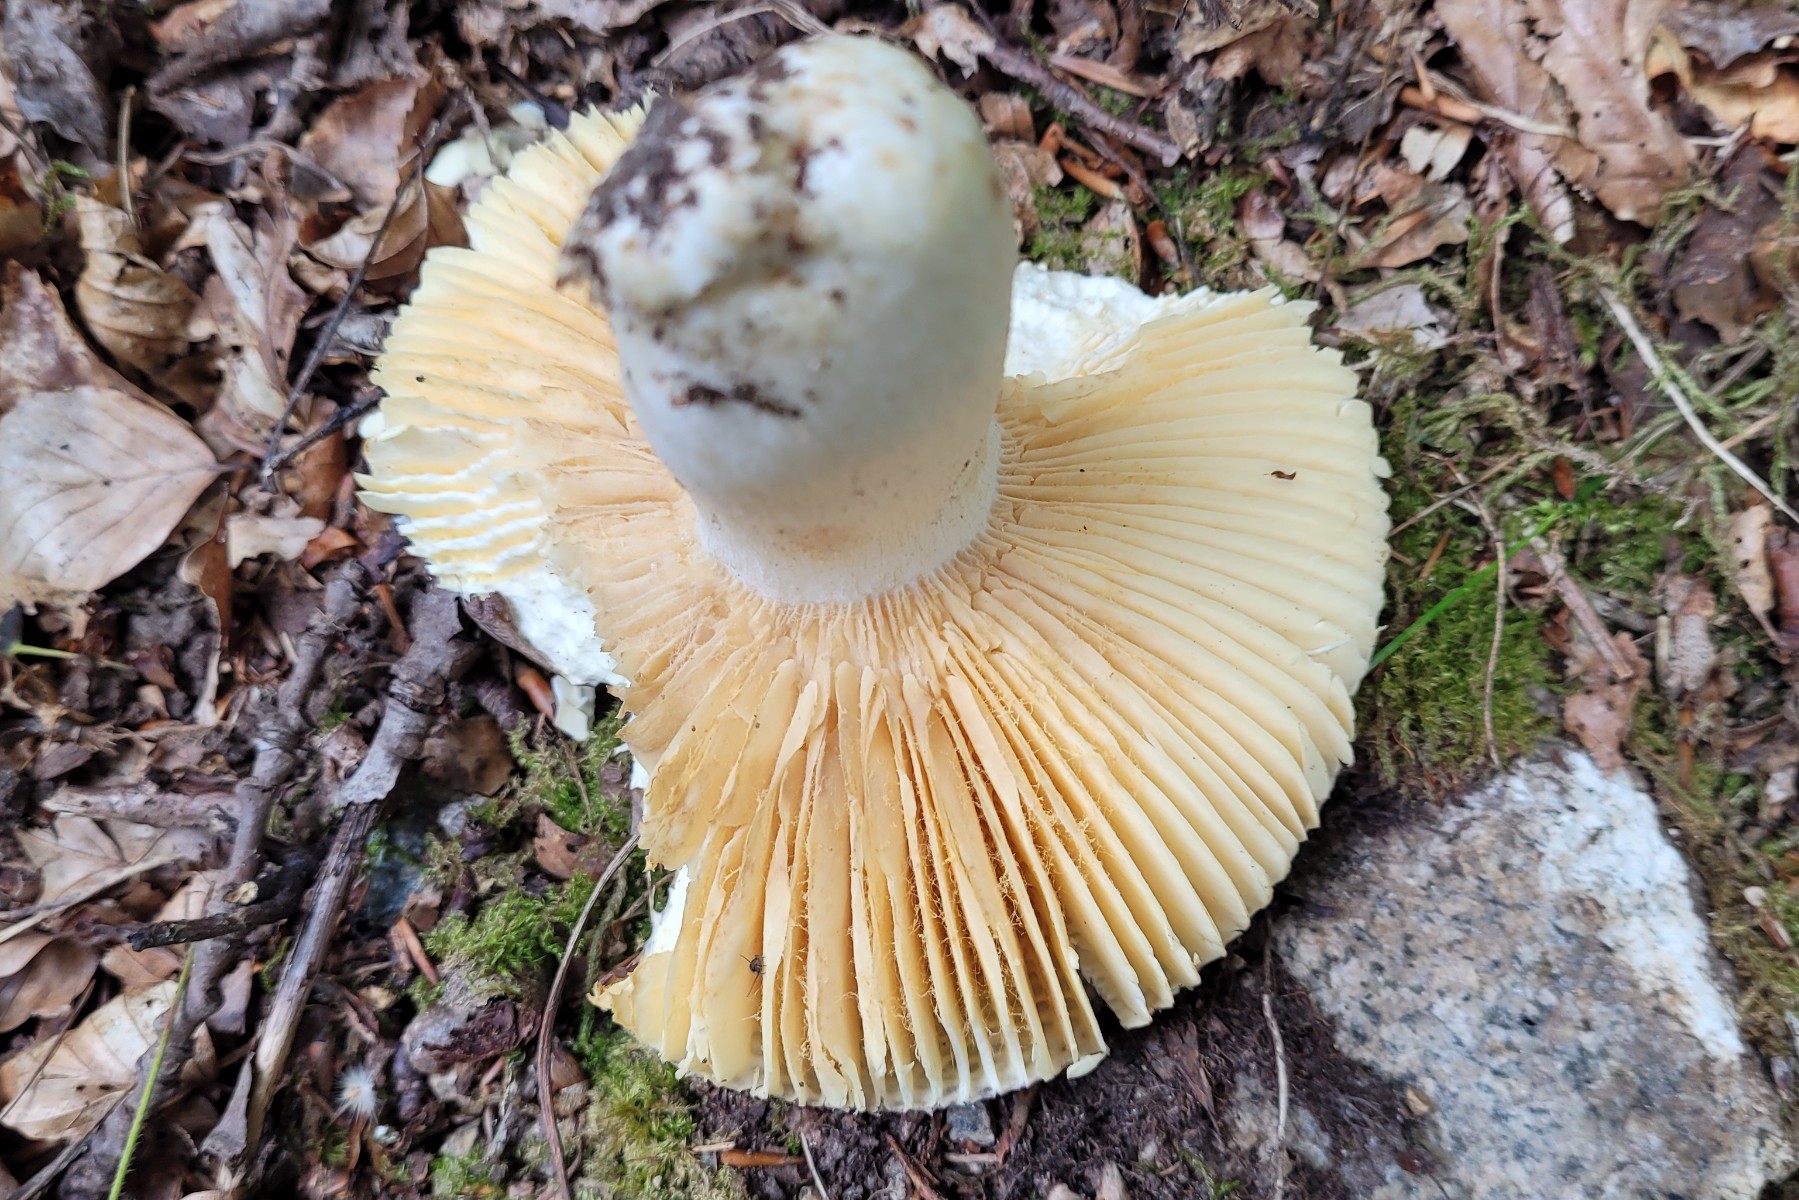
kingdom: Fungi
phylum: Basidiomycota
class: Agaricomycetes
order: Russulales
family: Russulaceae
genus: Russula
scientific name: Russula romellii
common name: romells skørhat
